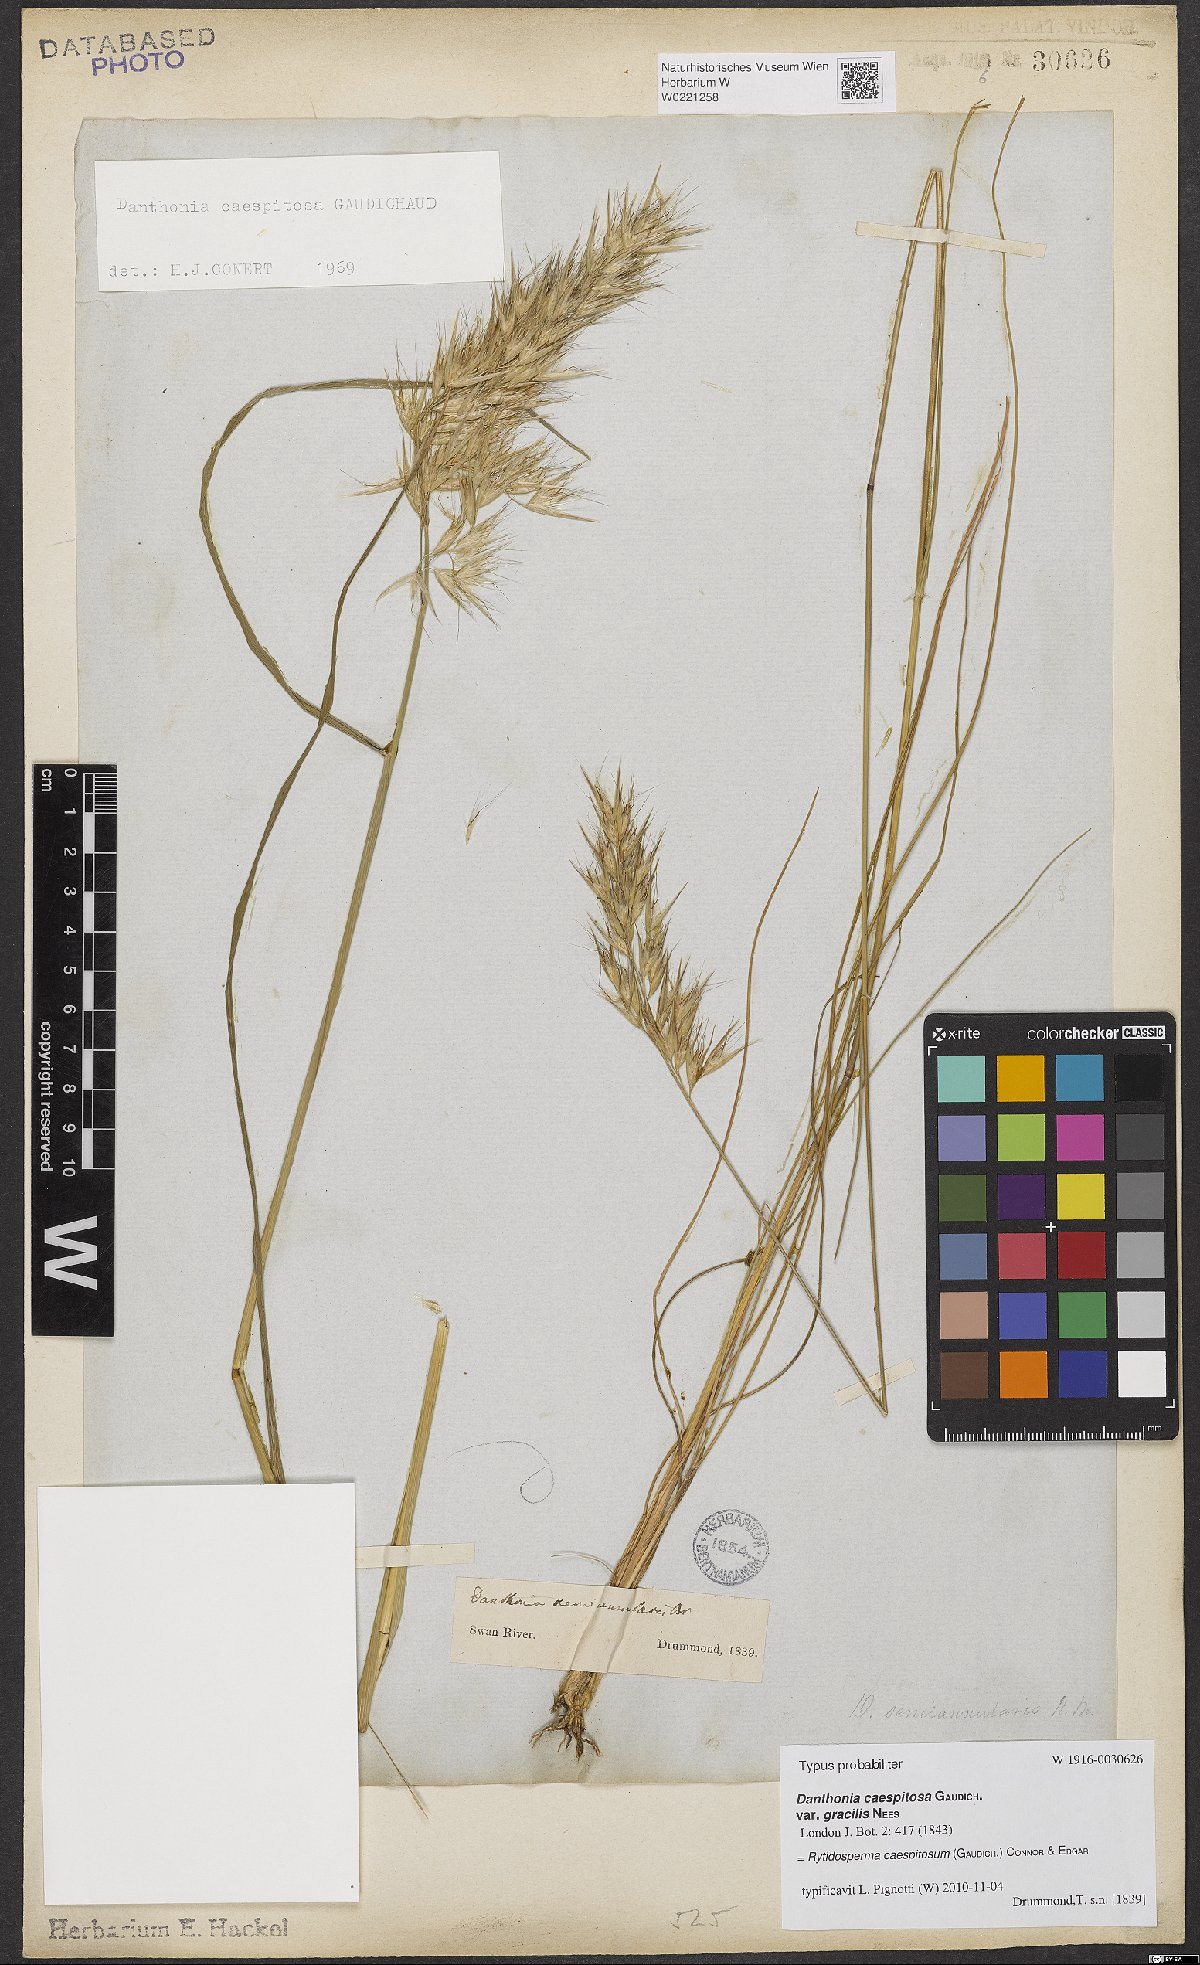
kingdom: Plantae
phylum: Tracheophyta
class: Liliopsida
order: Poales
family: Poaceae
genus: Rytidosperma
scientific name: Rytidosperma caespitosum
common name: Tufted wallaby grass
